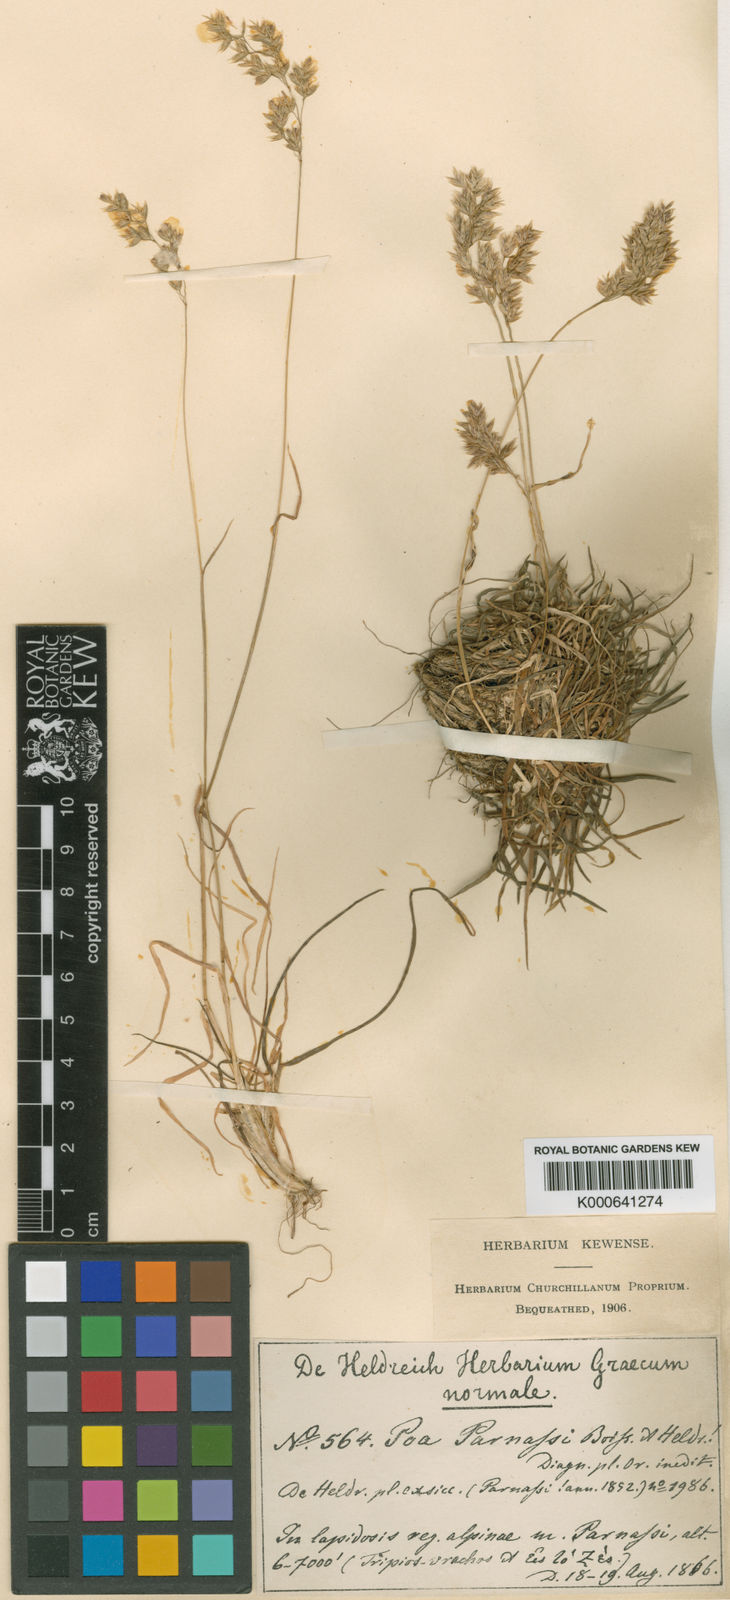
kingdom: Plantae
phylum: Tracheophyta
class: Liliopsida
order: Poales
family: Poaceae
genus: Briza
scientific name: Briza media
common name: Quaking grass
